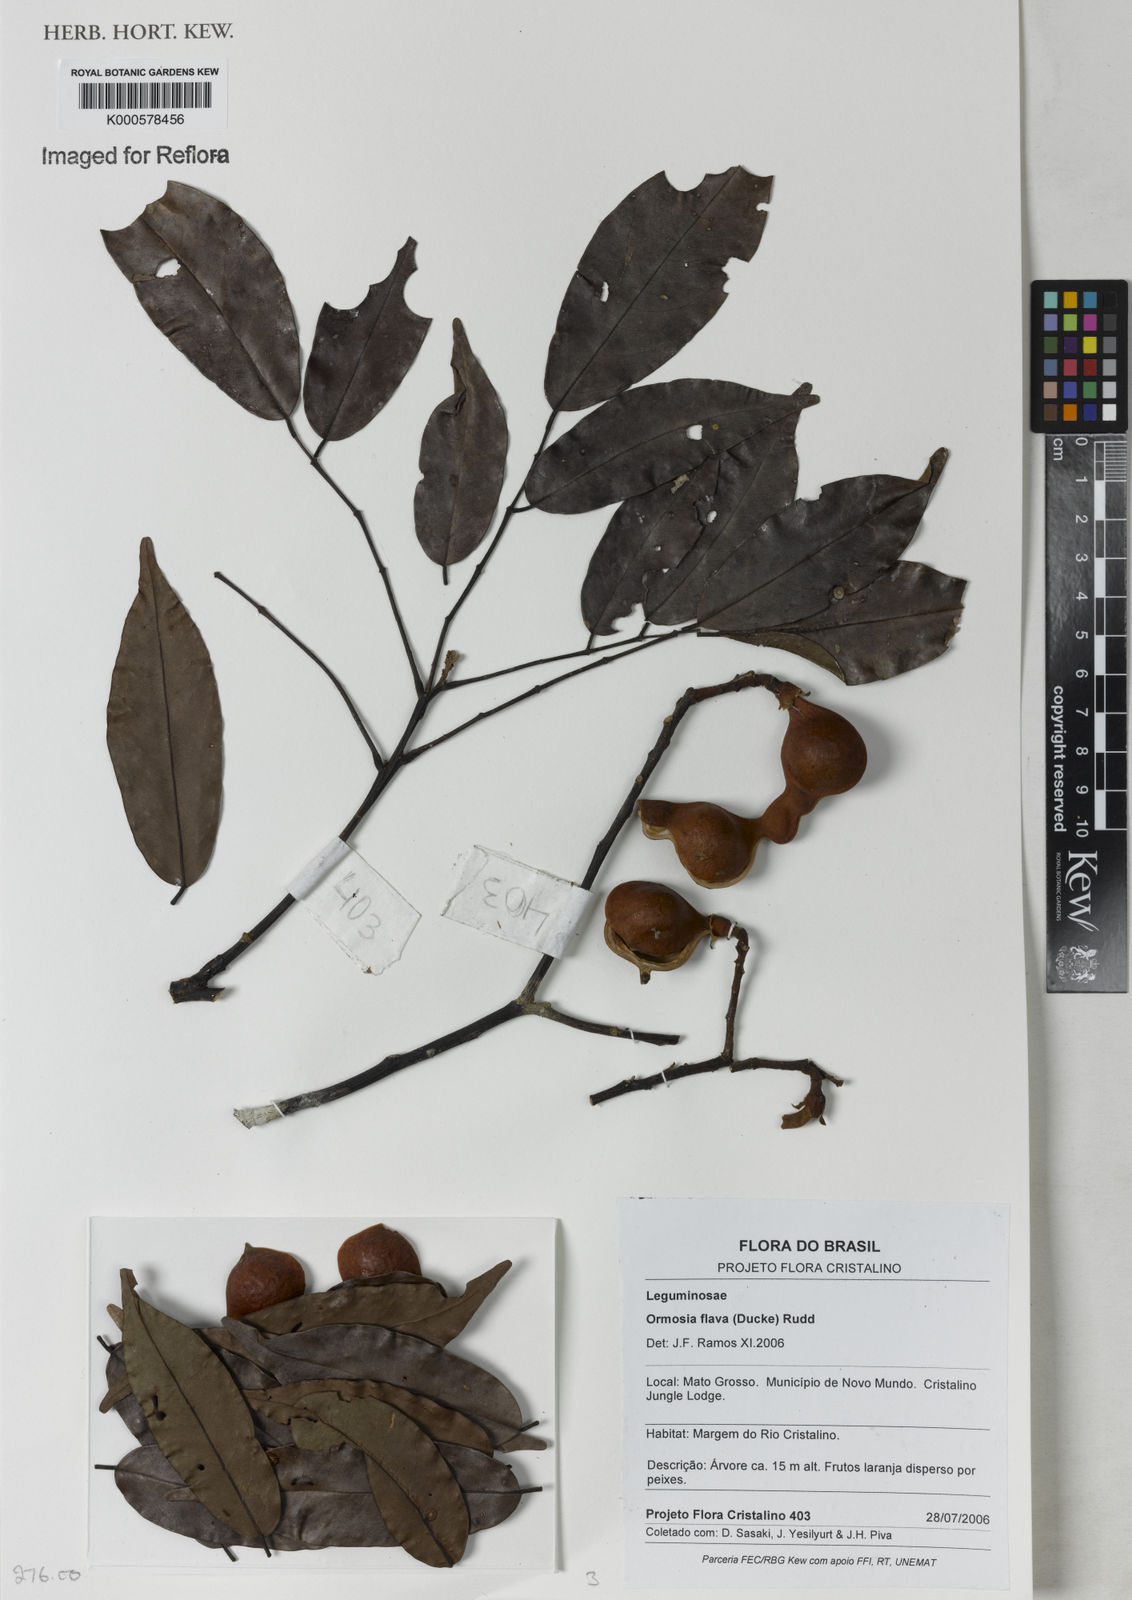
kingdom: Plantae
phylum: Tracheophyta
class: Magnoliopsida
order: Fabales
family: Fabaceae
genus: Ormosia
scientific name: Ormosia flava
